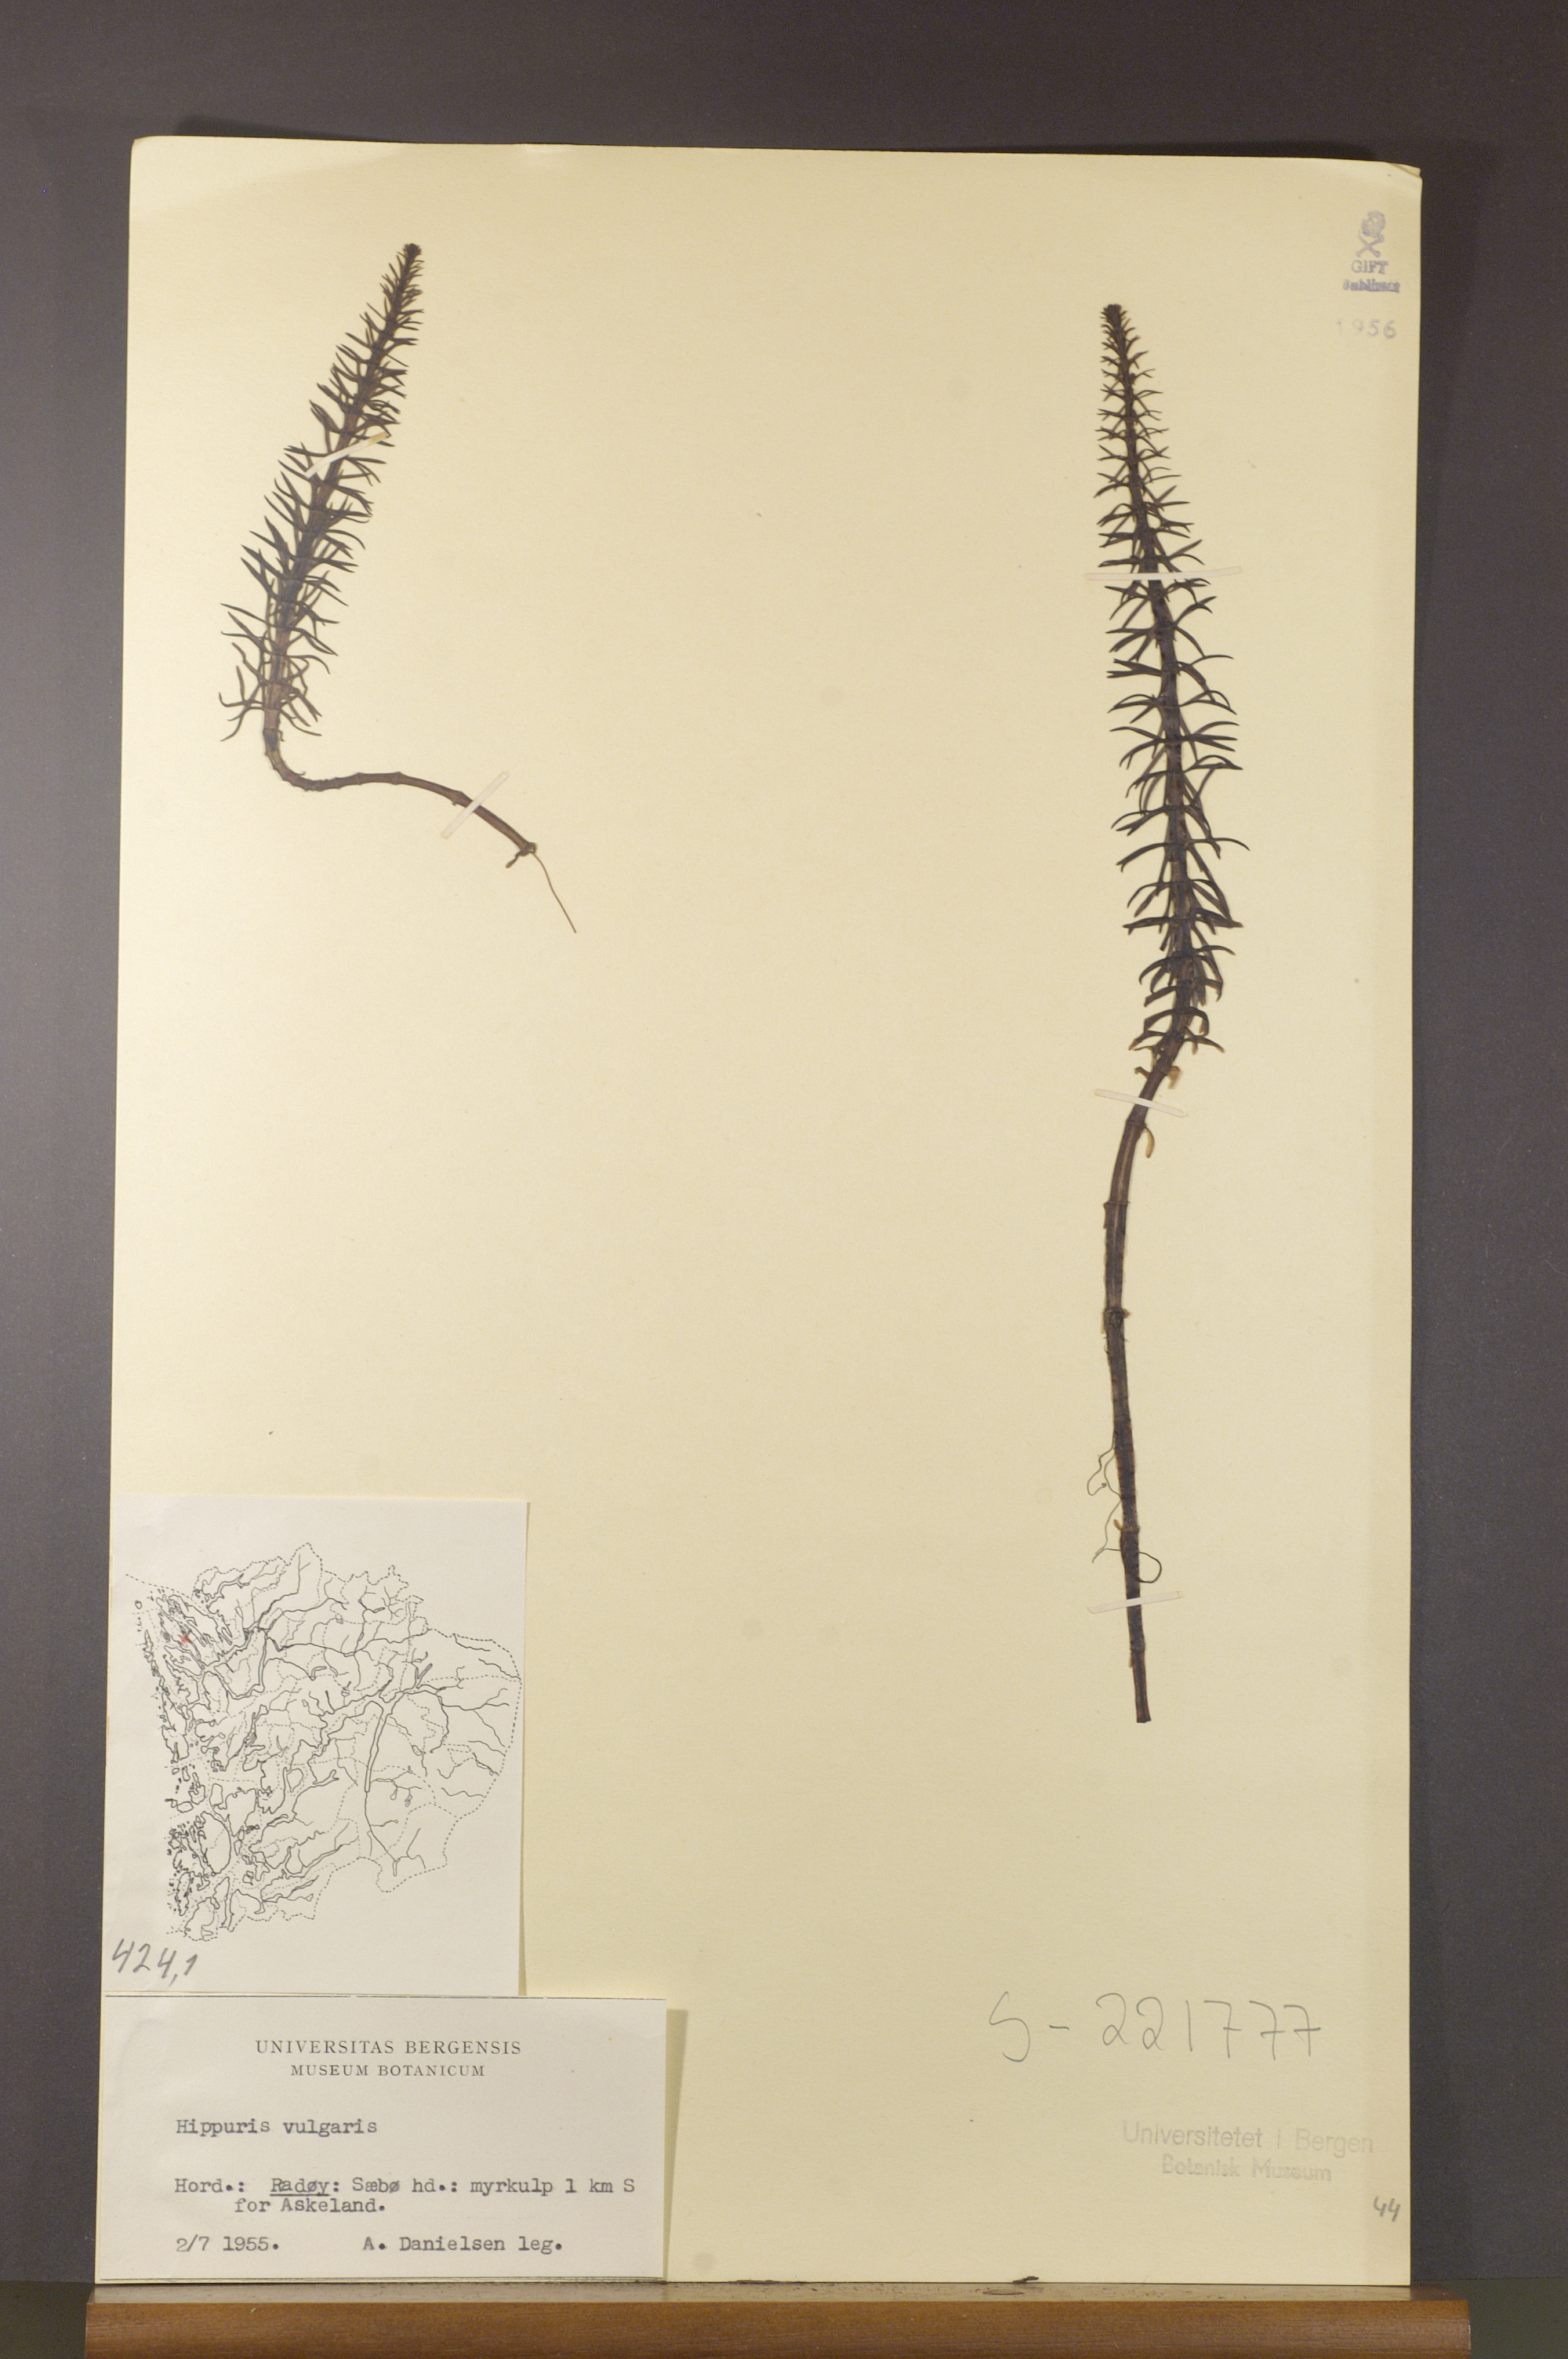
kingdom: Plantae
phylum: Tracheophyta
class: Magnoliopsida
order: Lamiales
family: Plantaginaceae
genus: Hippuris
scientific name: Hippuris vulgaris
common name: Mare's-tail
